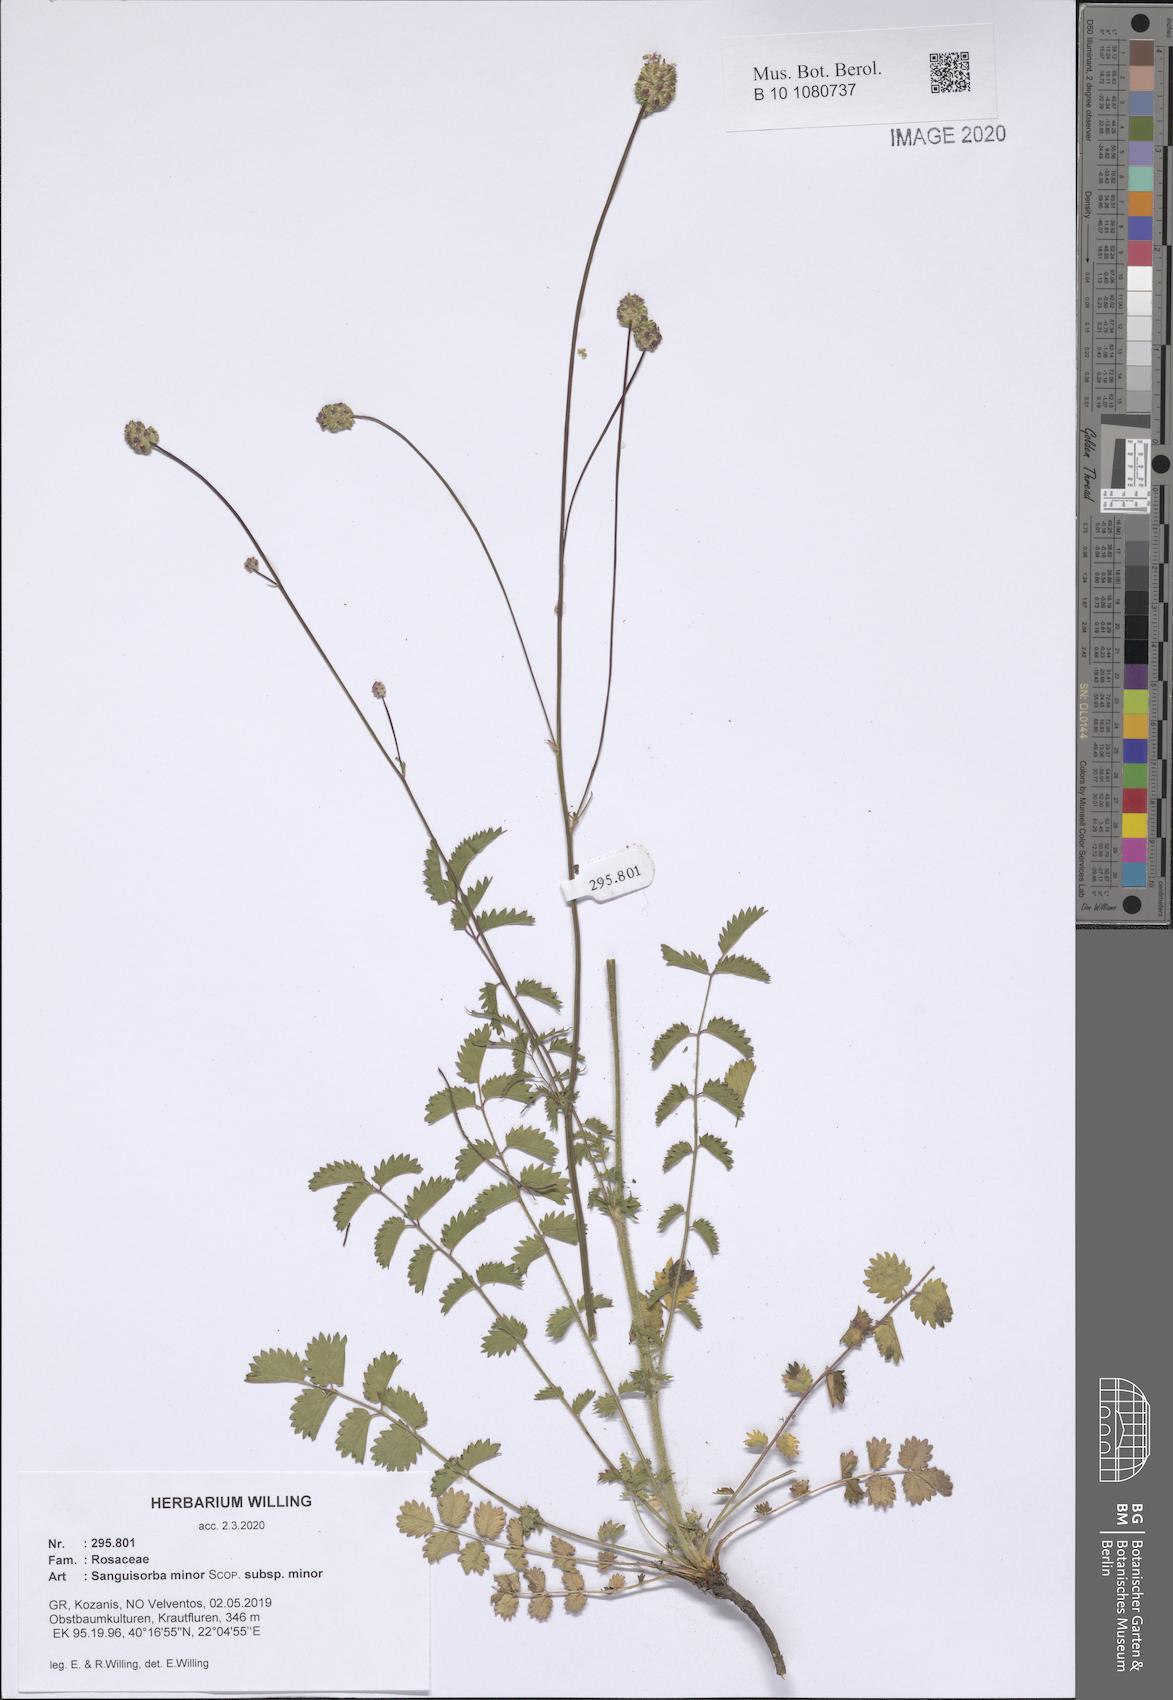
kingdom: Plantae
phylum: Tracheophyta
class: Magnoliopsida
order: Rosales
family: Rosaceae
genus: Poterium
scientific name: Poterium sanguisorba
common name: Salad burnet
